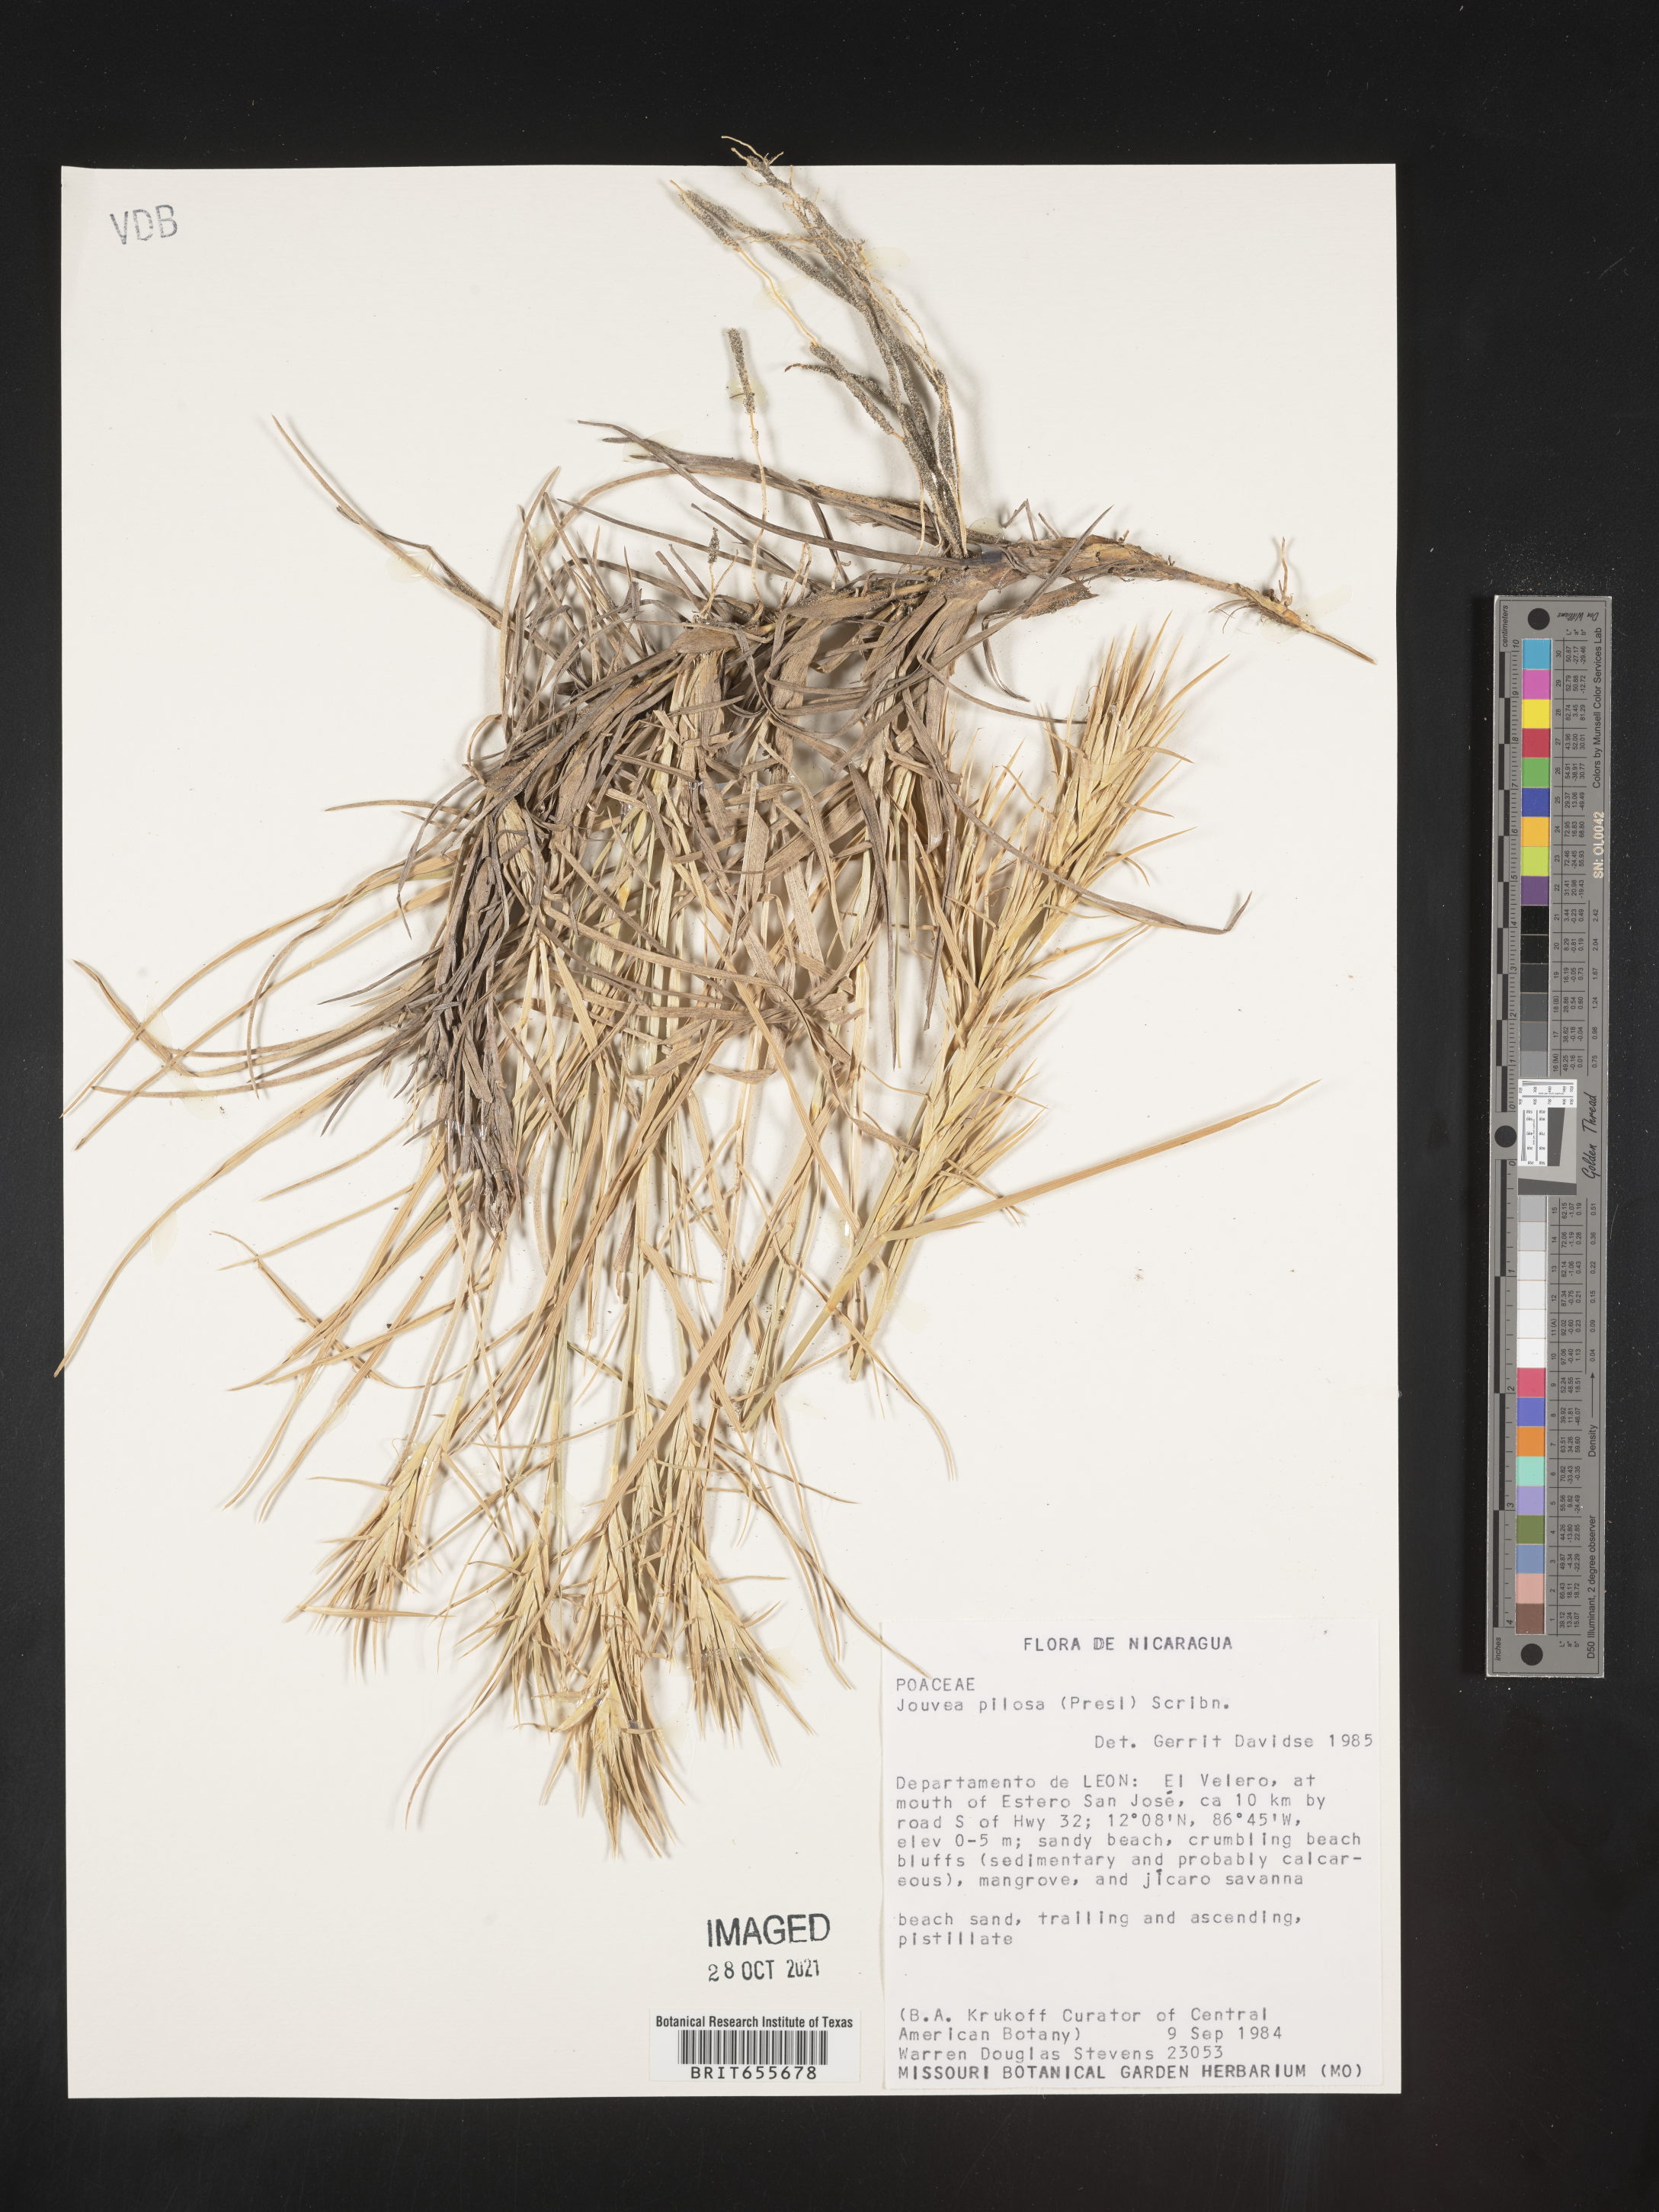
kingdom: Plantae
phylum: Tracheophyta
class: Liliopsida
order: Poales
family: Poaceae
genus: Jouvea
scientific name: Jouvea
